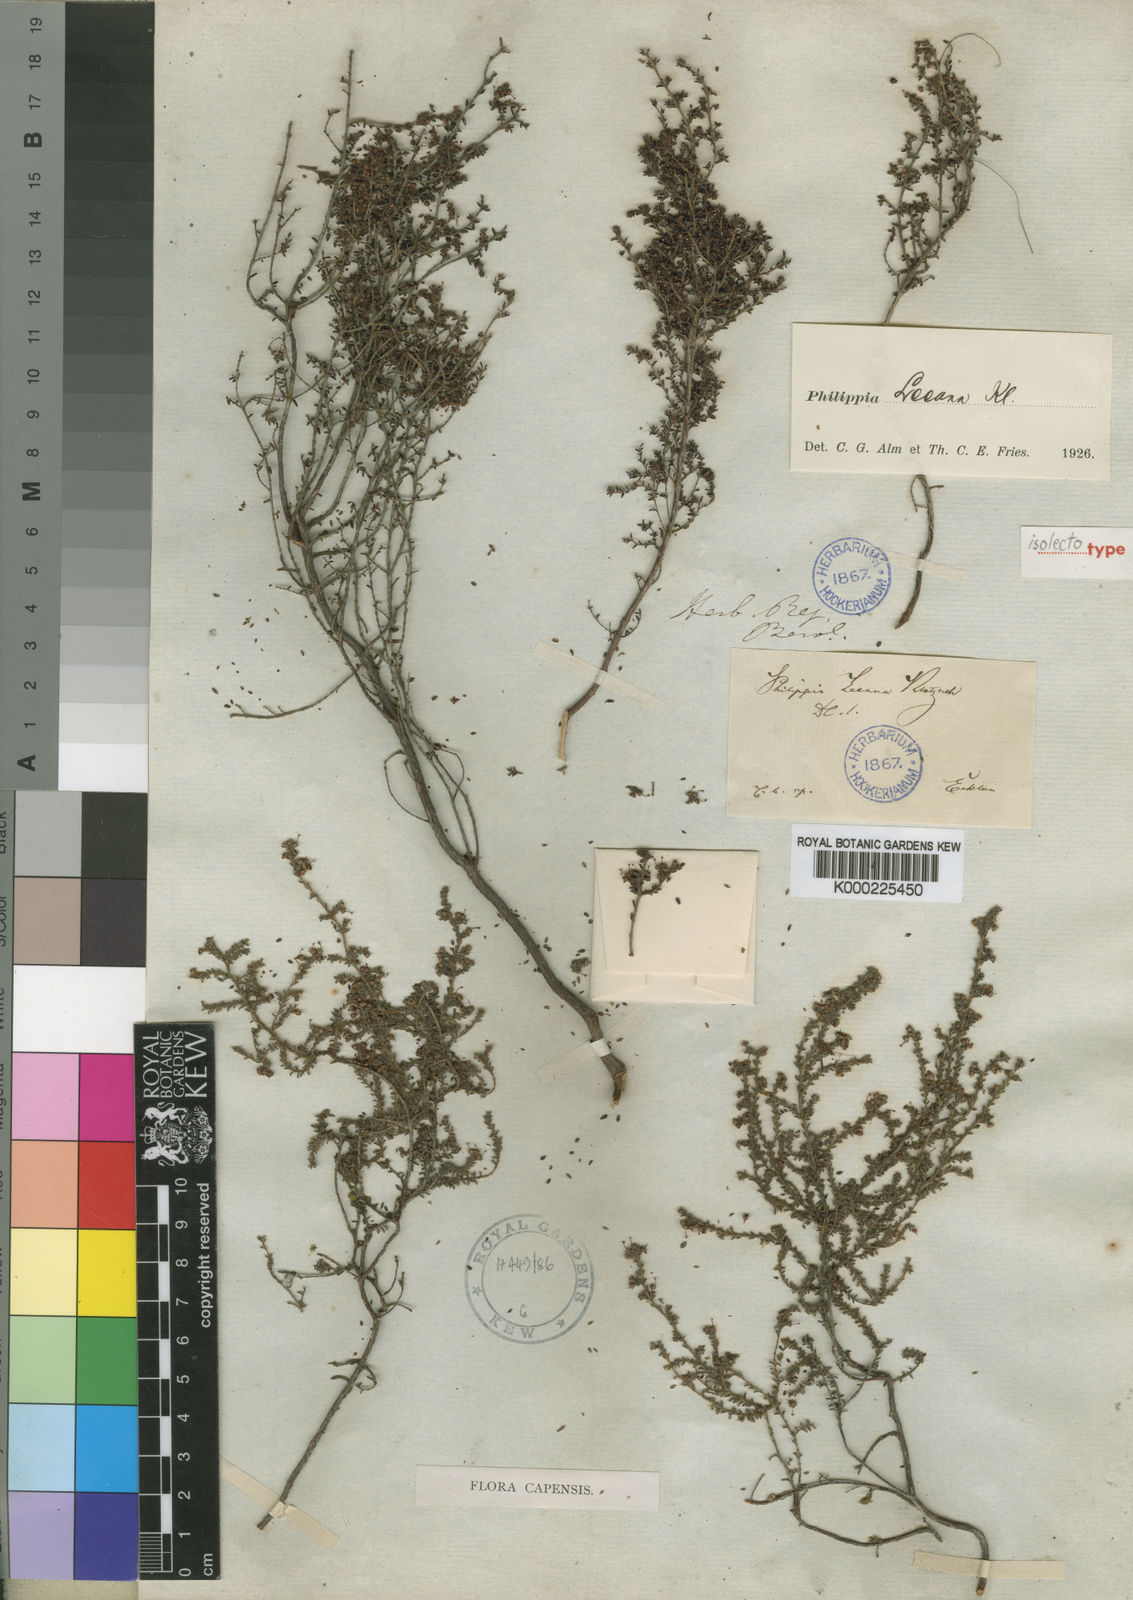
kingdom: Plantae
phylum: Tracheophyta
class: Magnoliopsida
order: Ericales
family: Ericaceae
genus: Erica
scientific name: Erica exleeana
